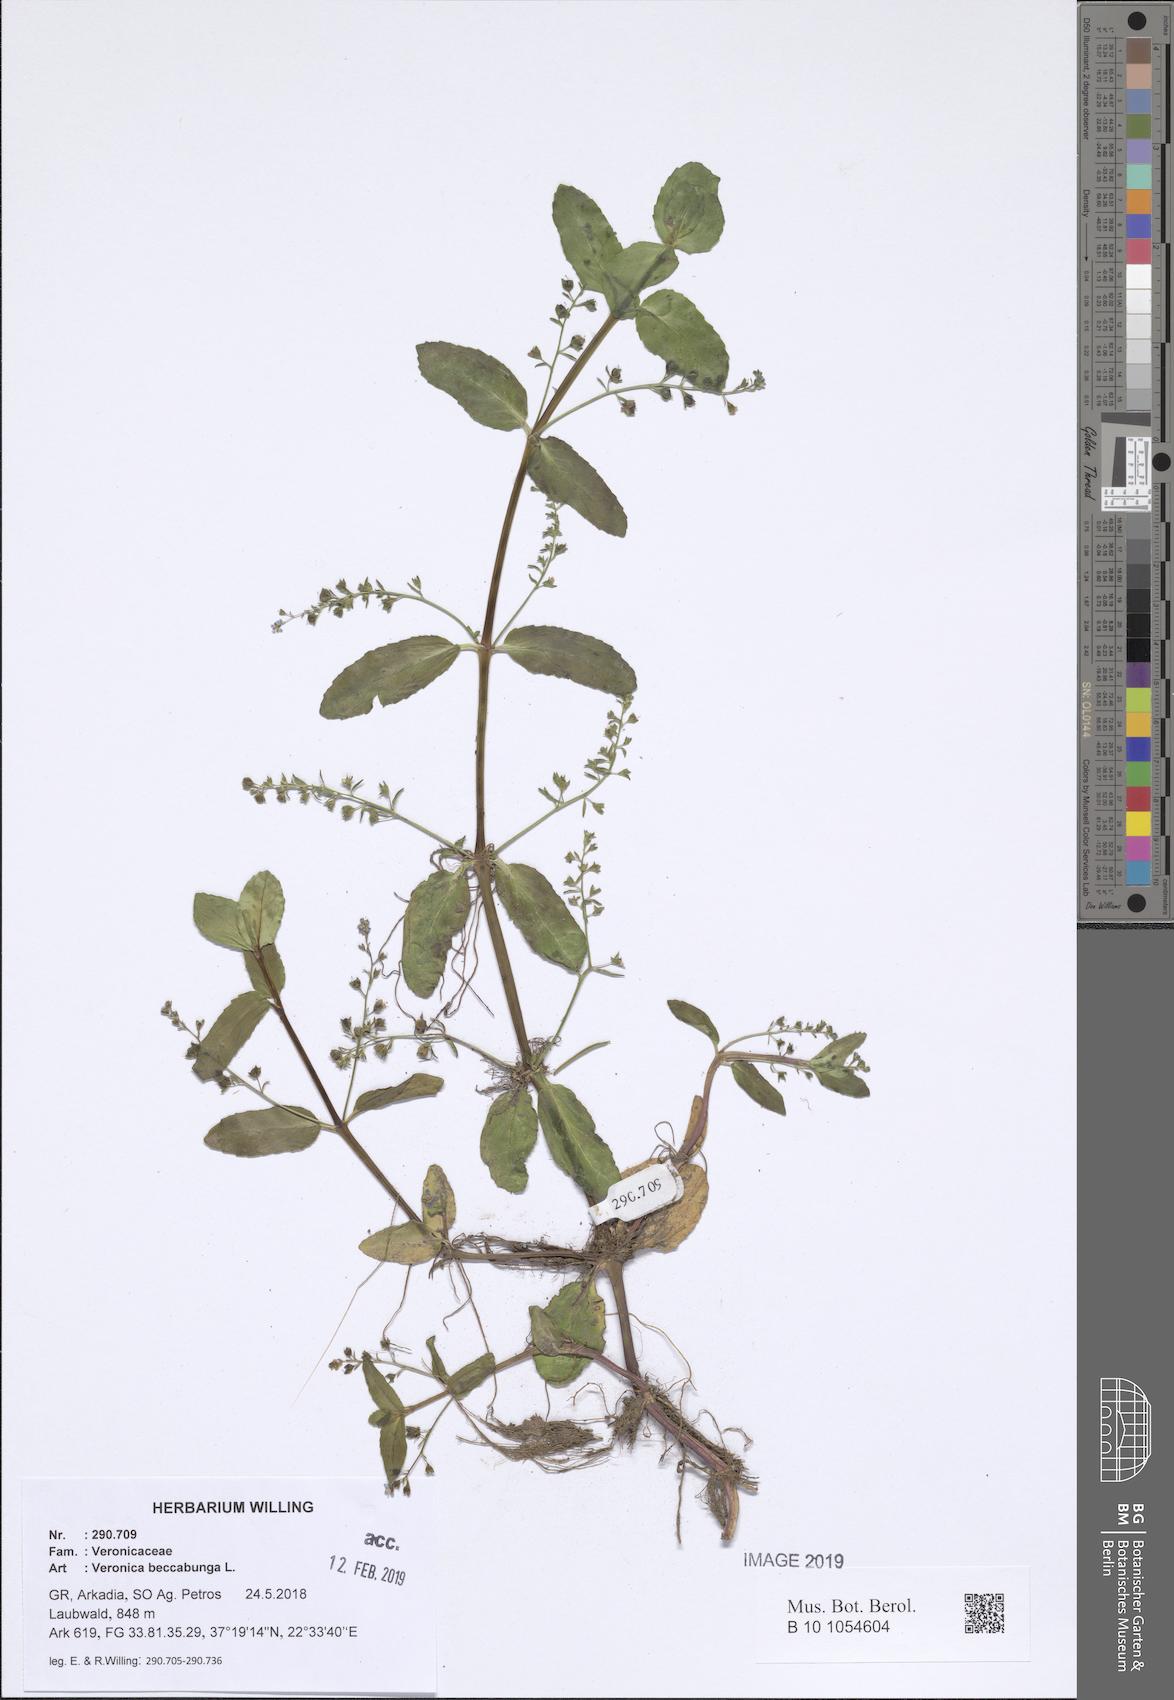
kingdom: Plantae
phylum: Tracheophyta
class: Magnoliopsida
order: Lamiales
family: Plantaginaceae
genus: Veronica
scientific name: Veronica beccabunga
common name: Brooklime
